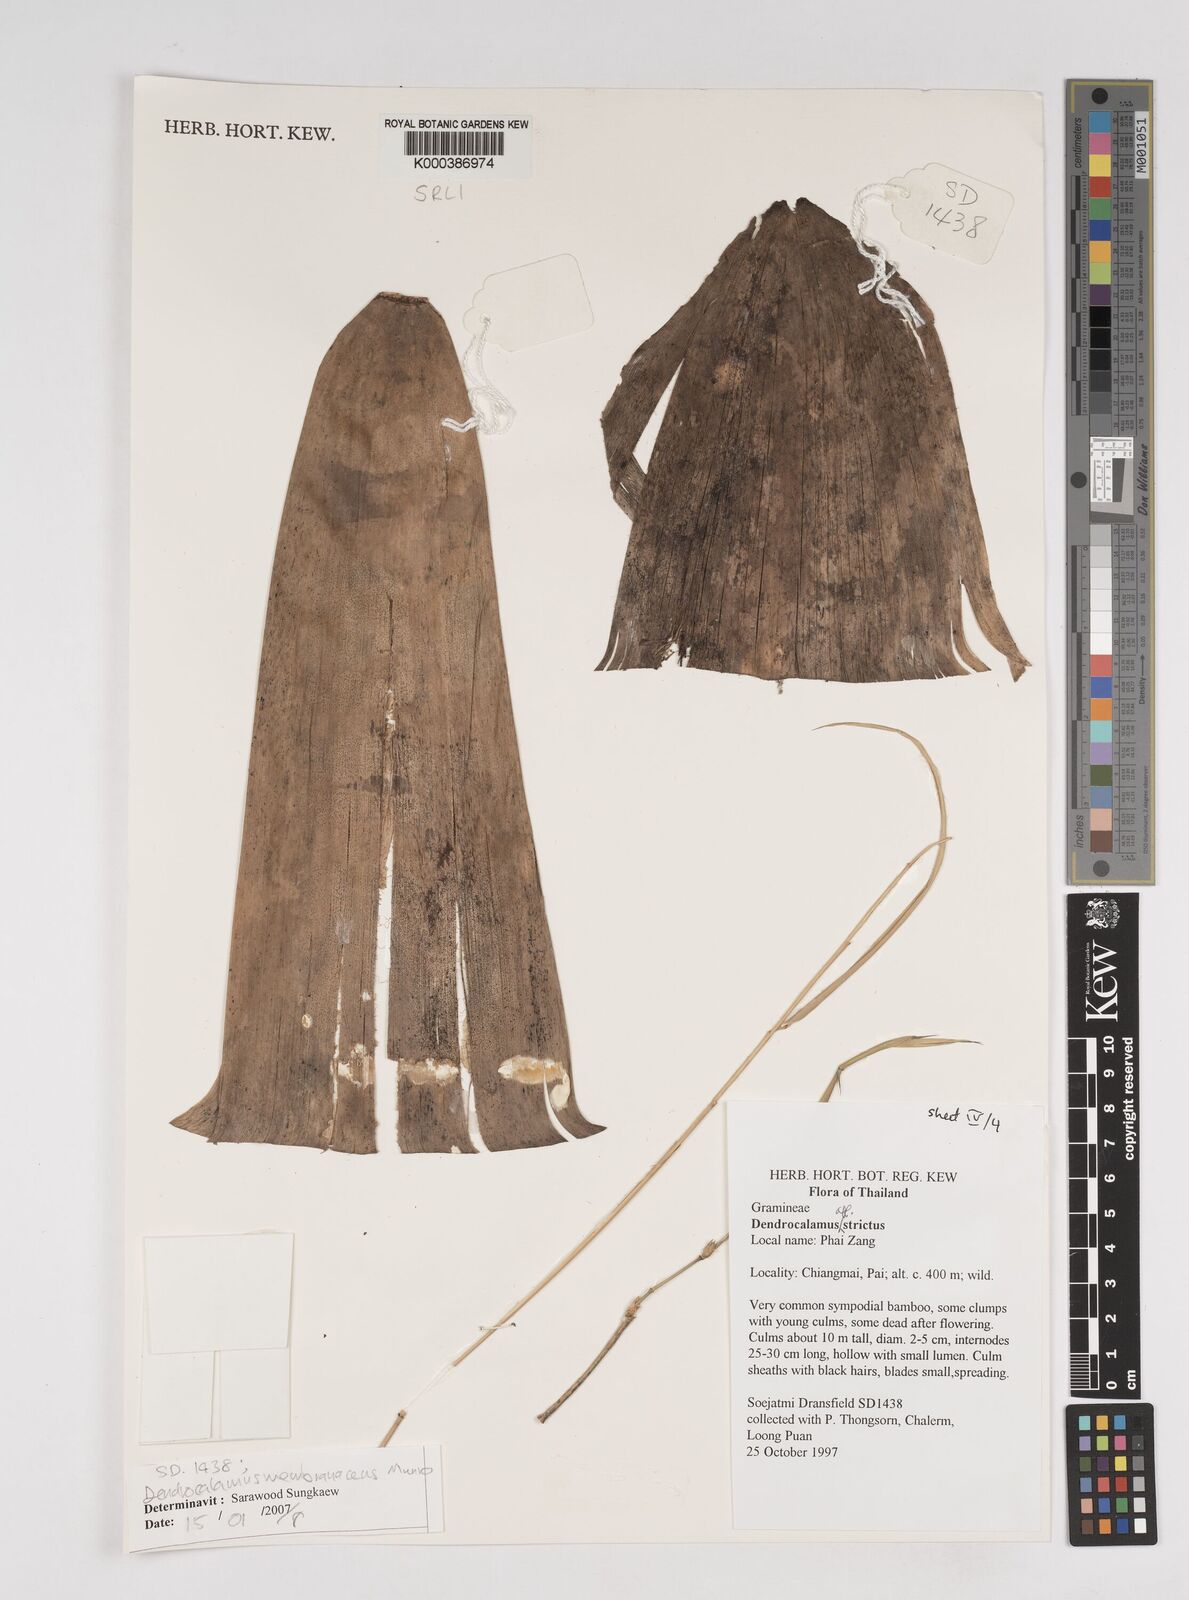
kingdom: Plantae
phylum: Tracheophyta
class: Liliopsida
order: Poales
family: Poaceae
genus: Dendrocalamus
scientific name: Dendrocalamus membranaceus
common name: White bamboo
